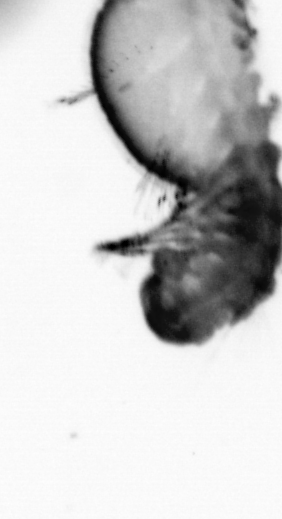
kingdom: Animalia
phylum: Annelida
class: Polychaeta
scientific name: Polychaeta
